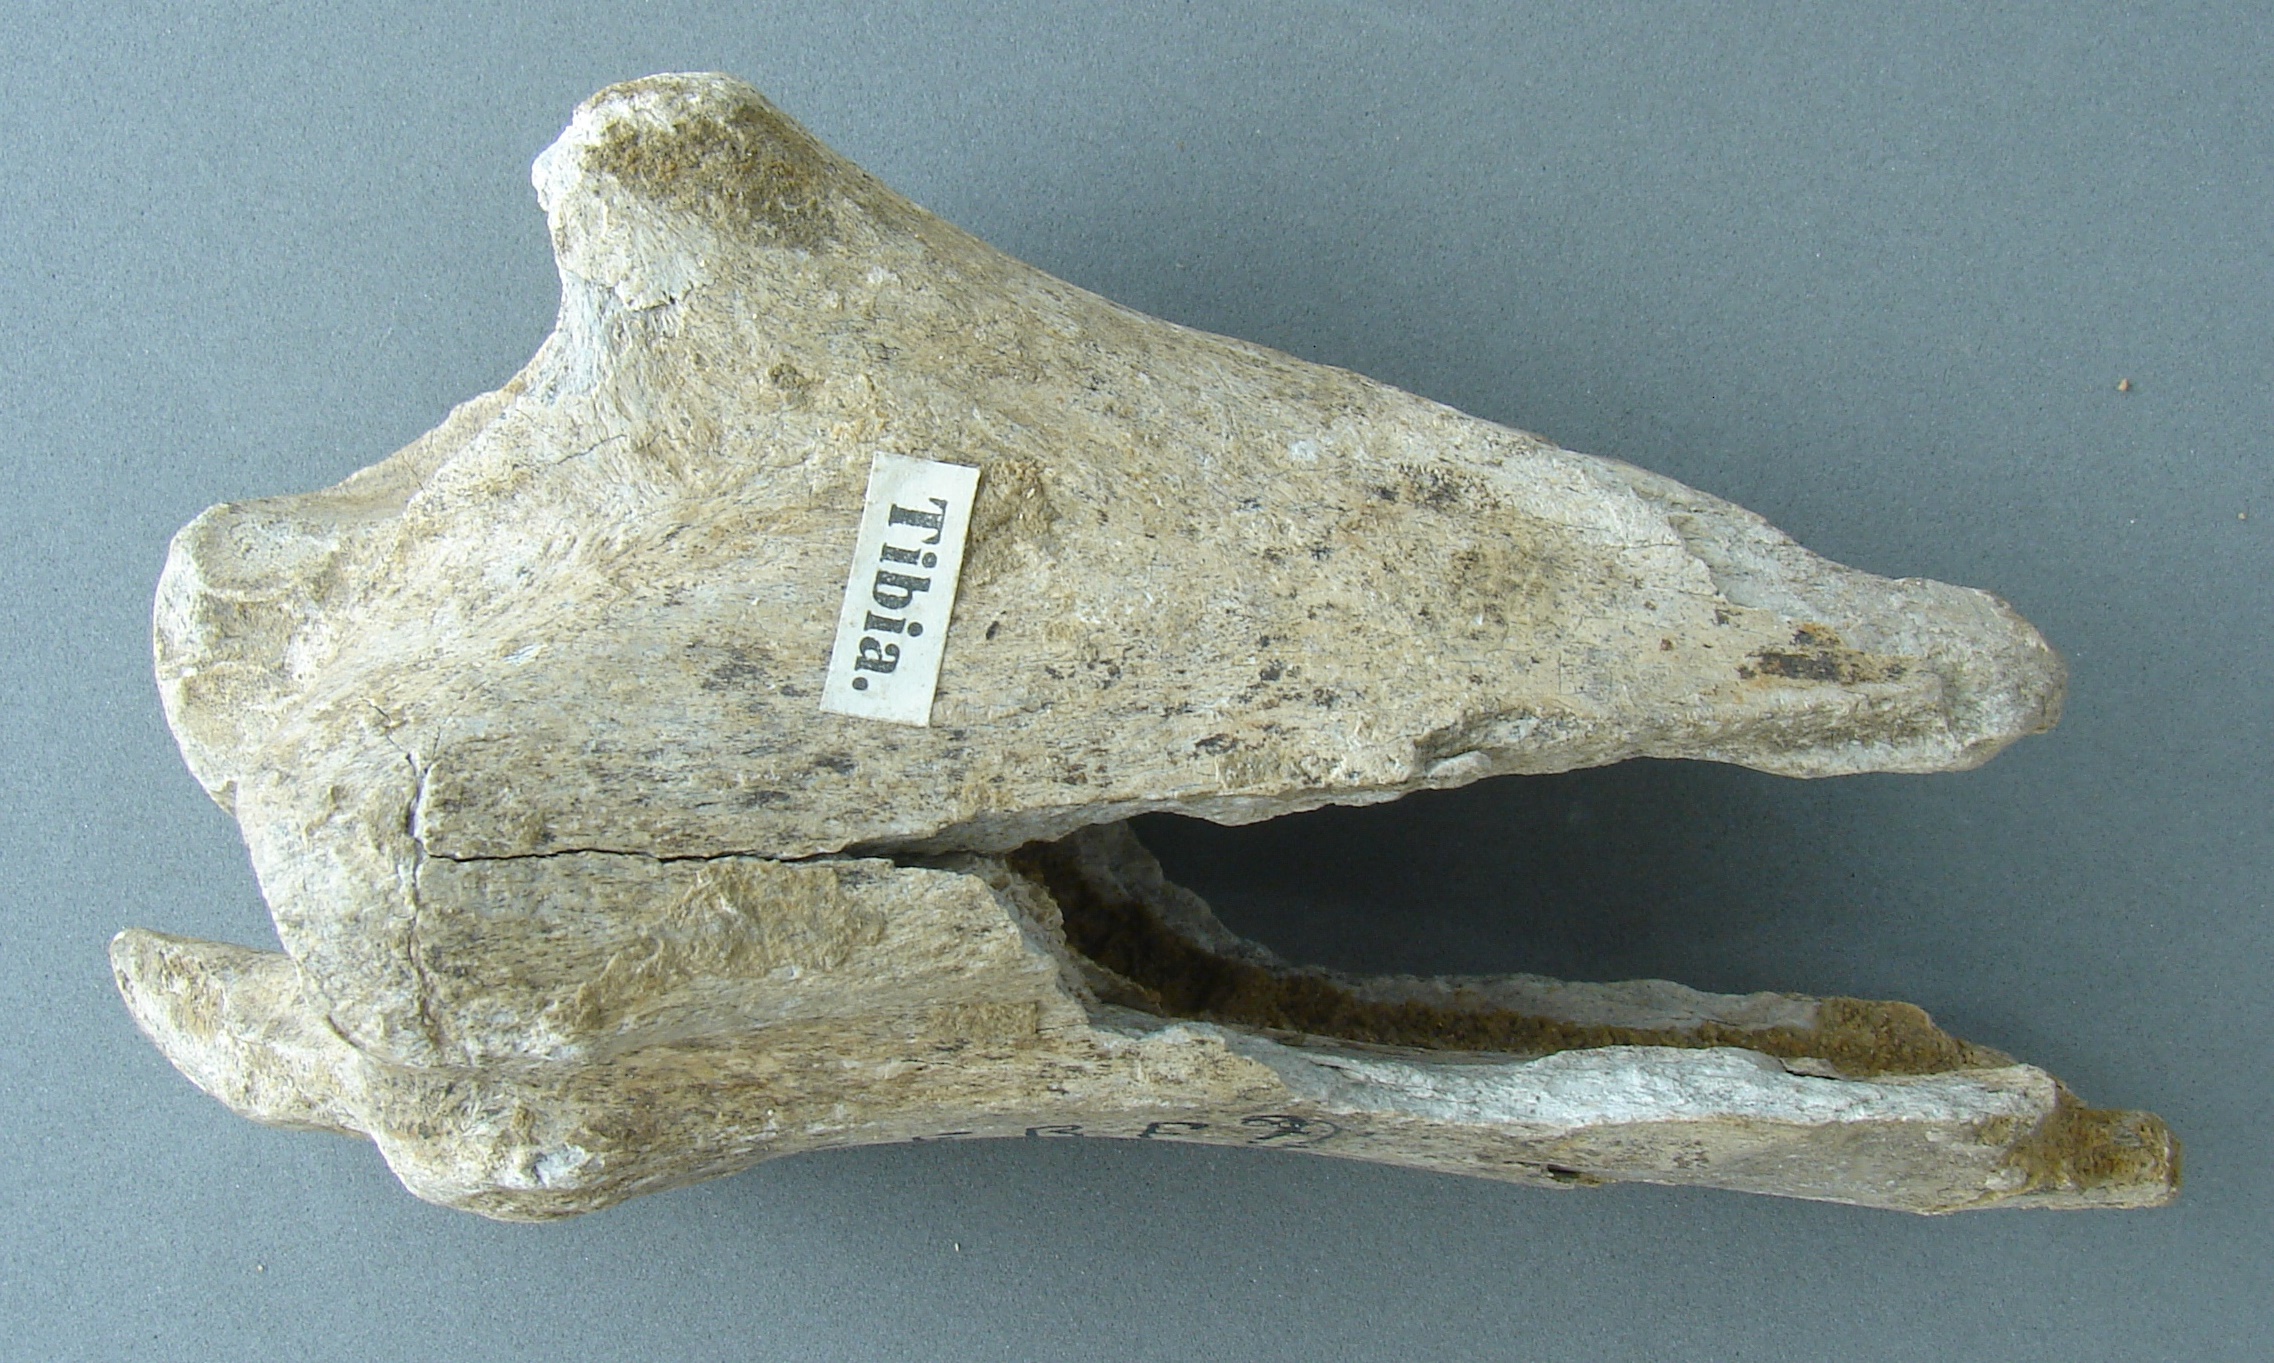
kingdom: Animalia
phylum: Chordata
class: Mammalia
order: Artiodactyla
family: Cervidae
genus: Cervus
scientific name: Cervus elaphus
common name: Red deer
